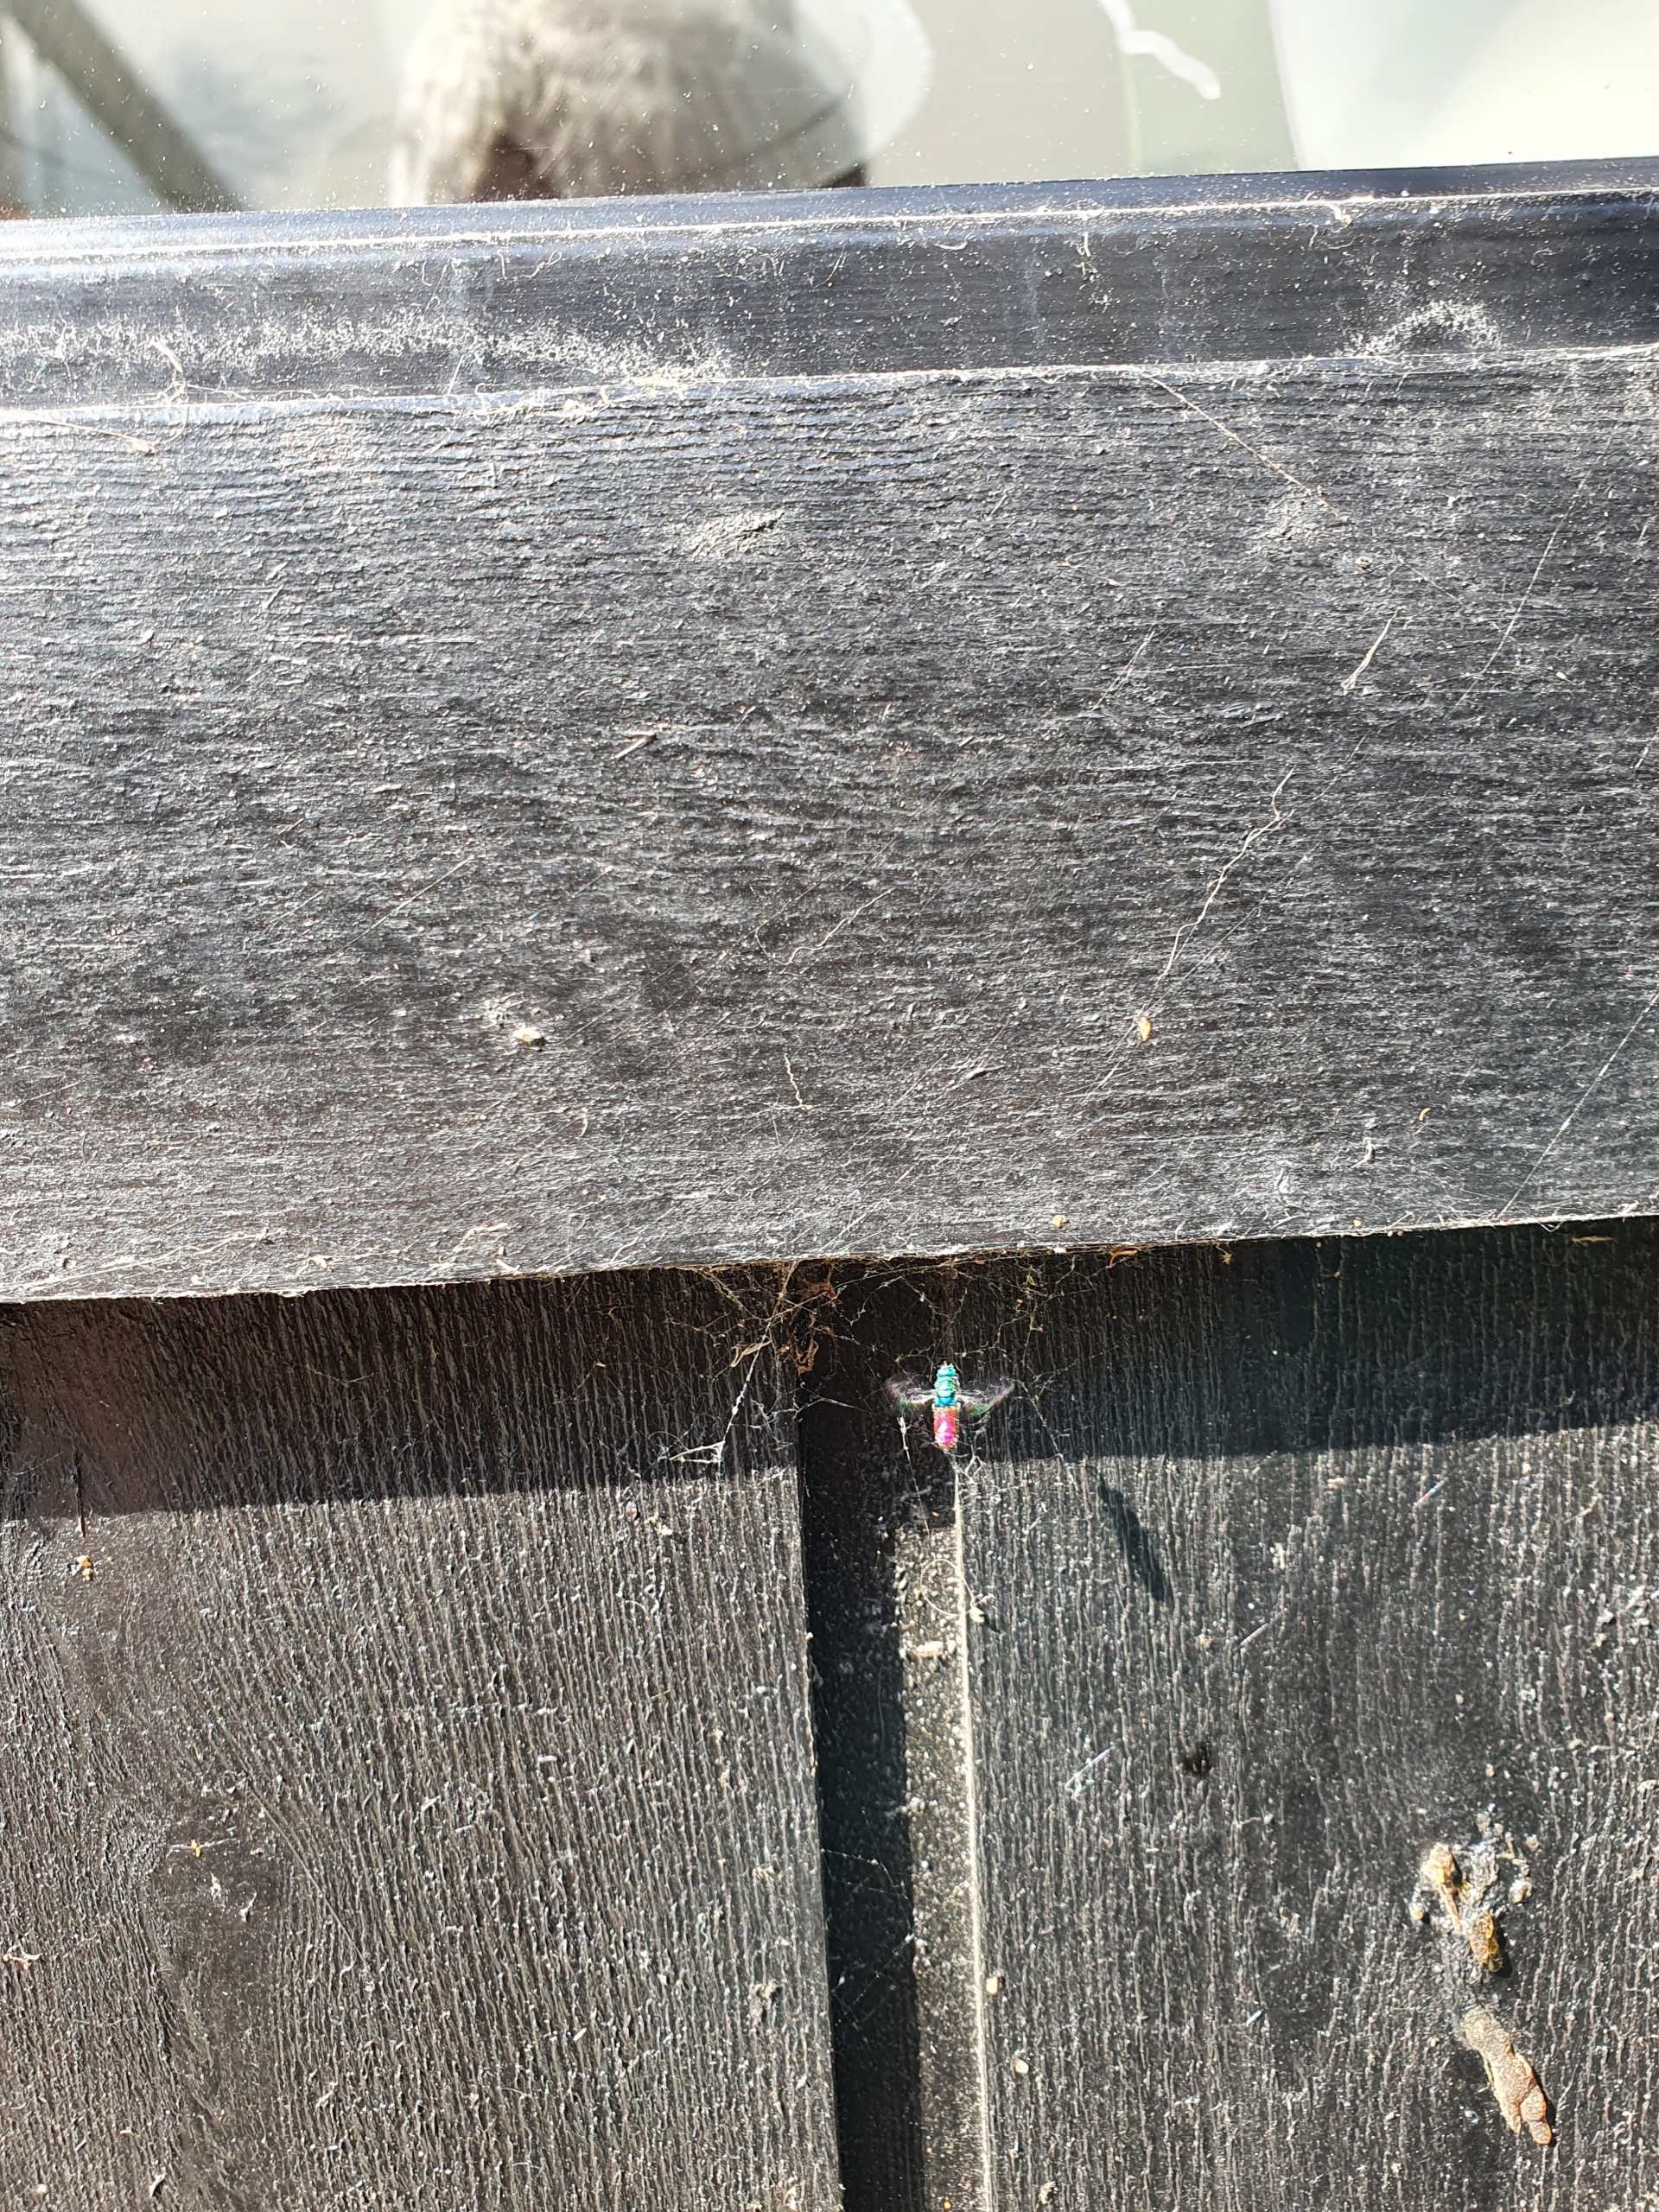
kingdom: Animalia
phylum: Arthropoda
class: Insecta
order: Hymenoptera
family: Chrysididae
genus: Chrysis
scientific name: Chrysis
